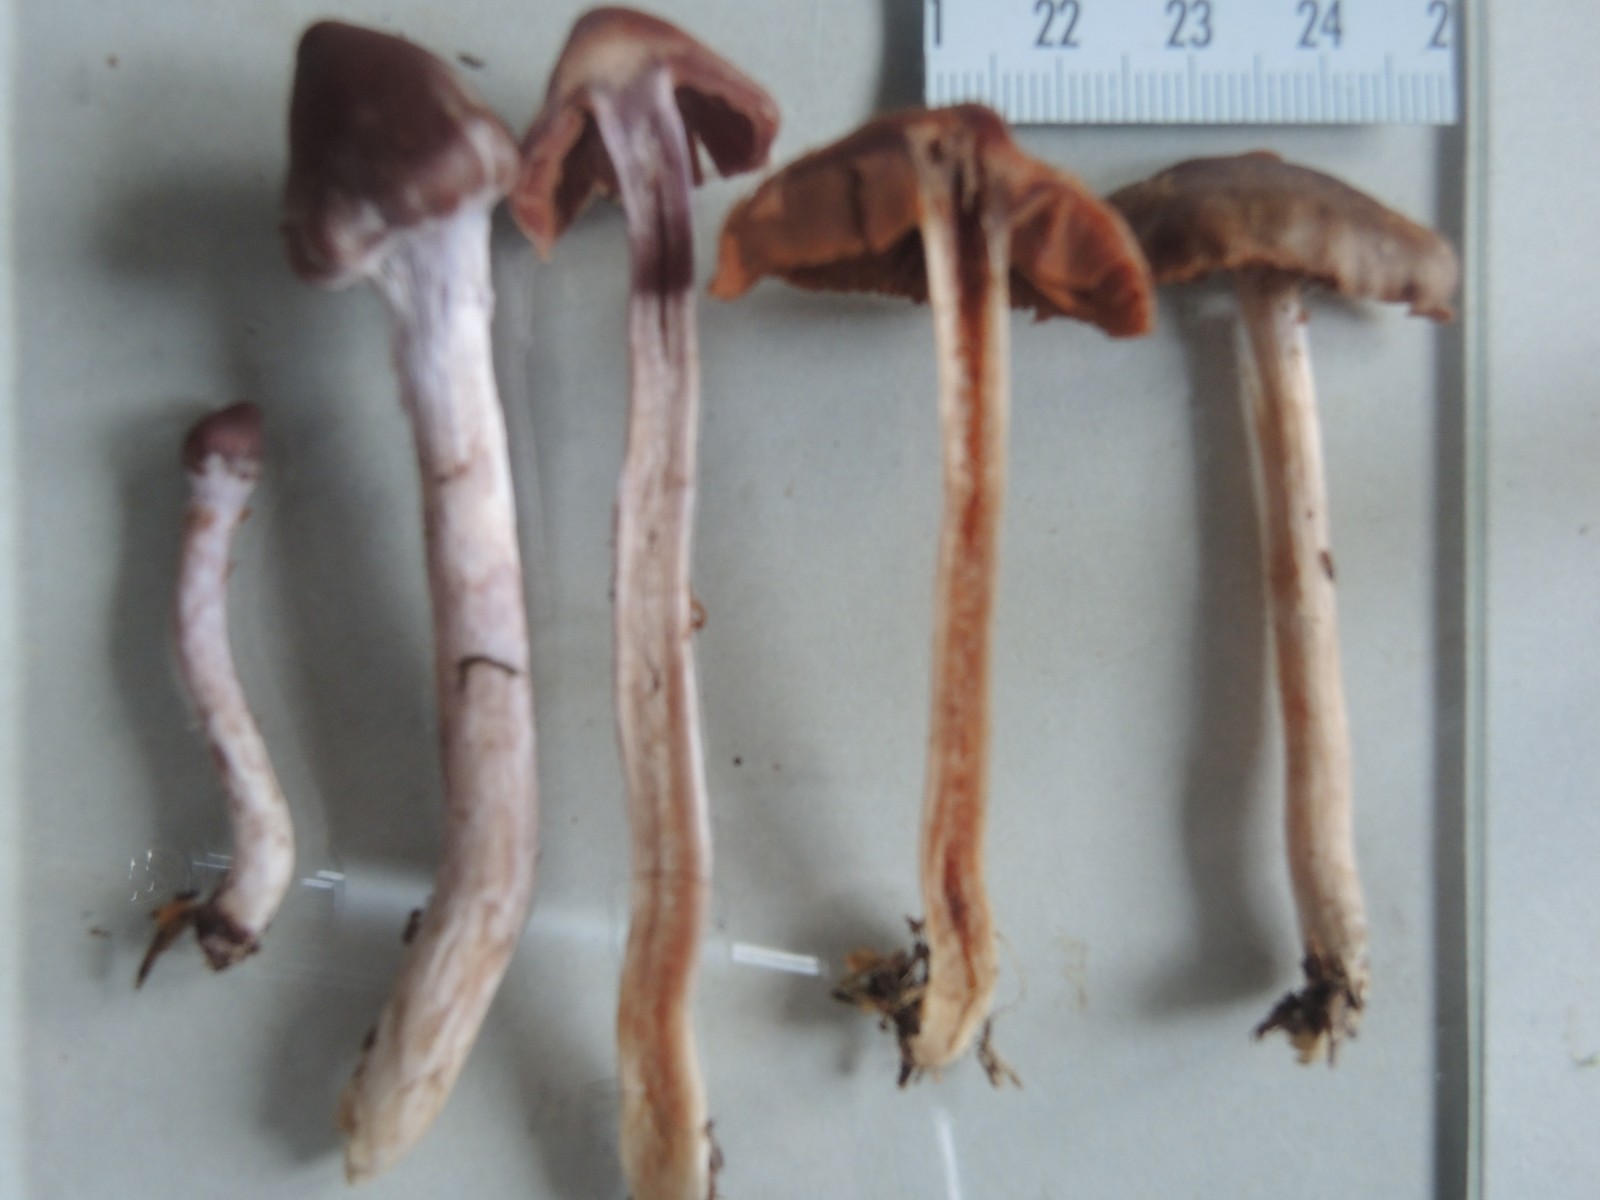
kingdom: Fungi
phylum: Basidiomycota
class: Agaricomycetes
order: Agaricales
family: Cortinariaceae
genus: Cortinarius
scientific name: Cortinarius
